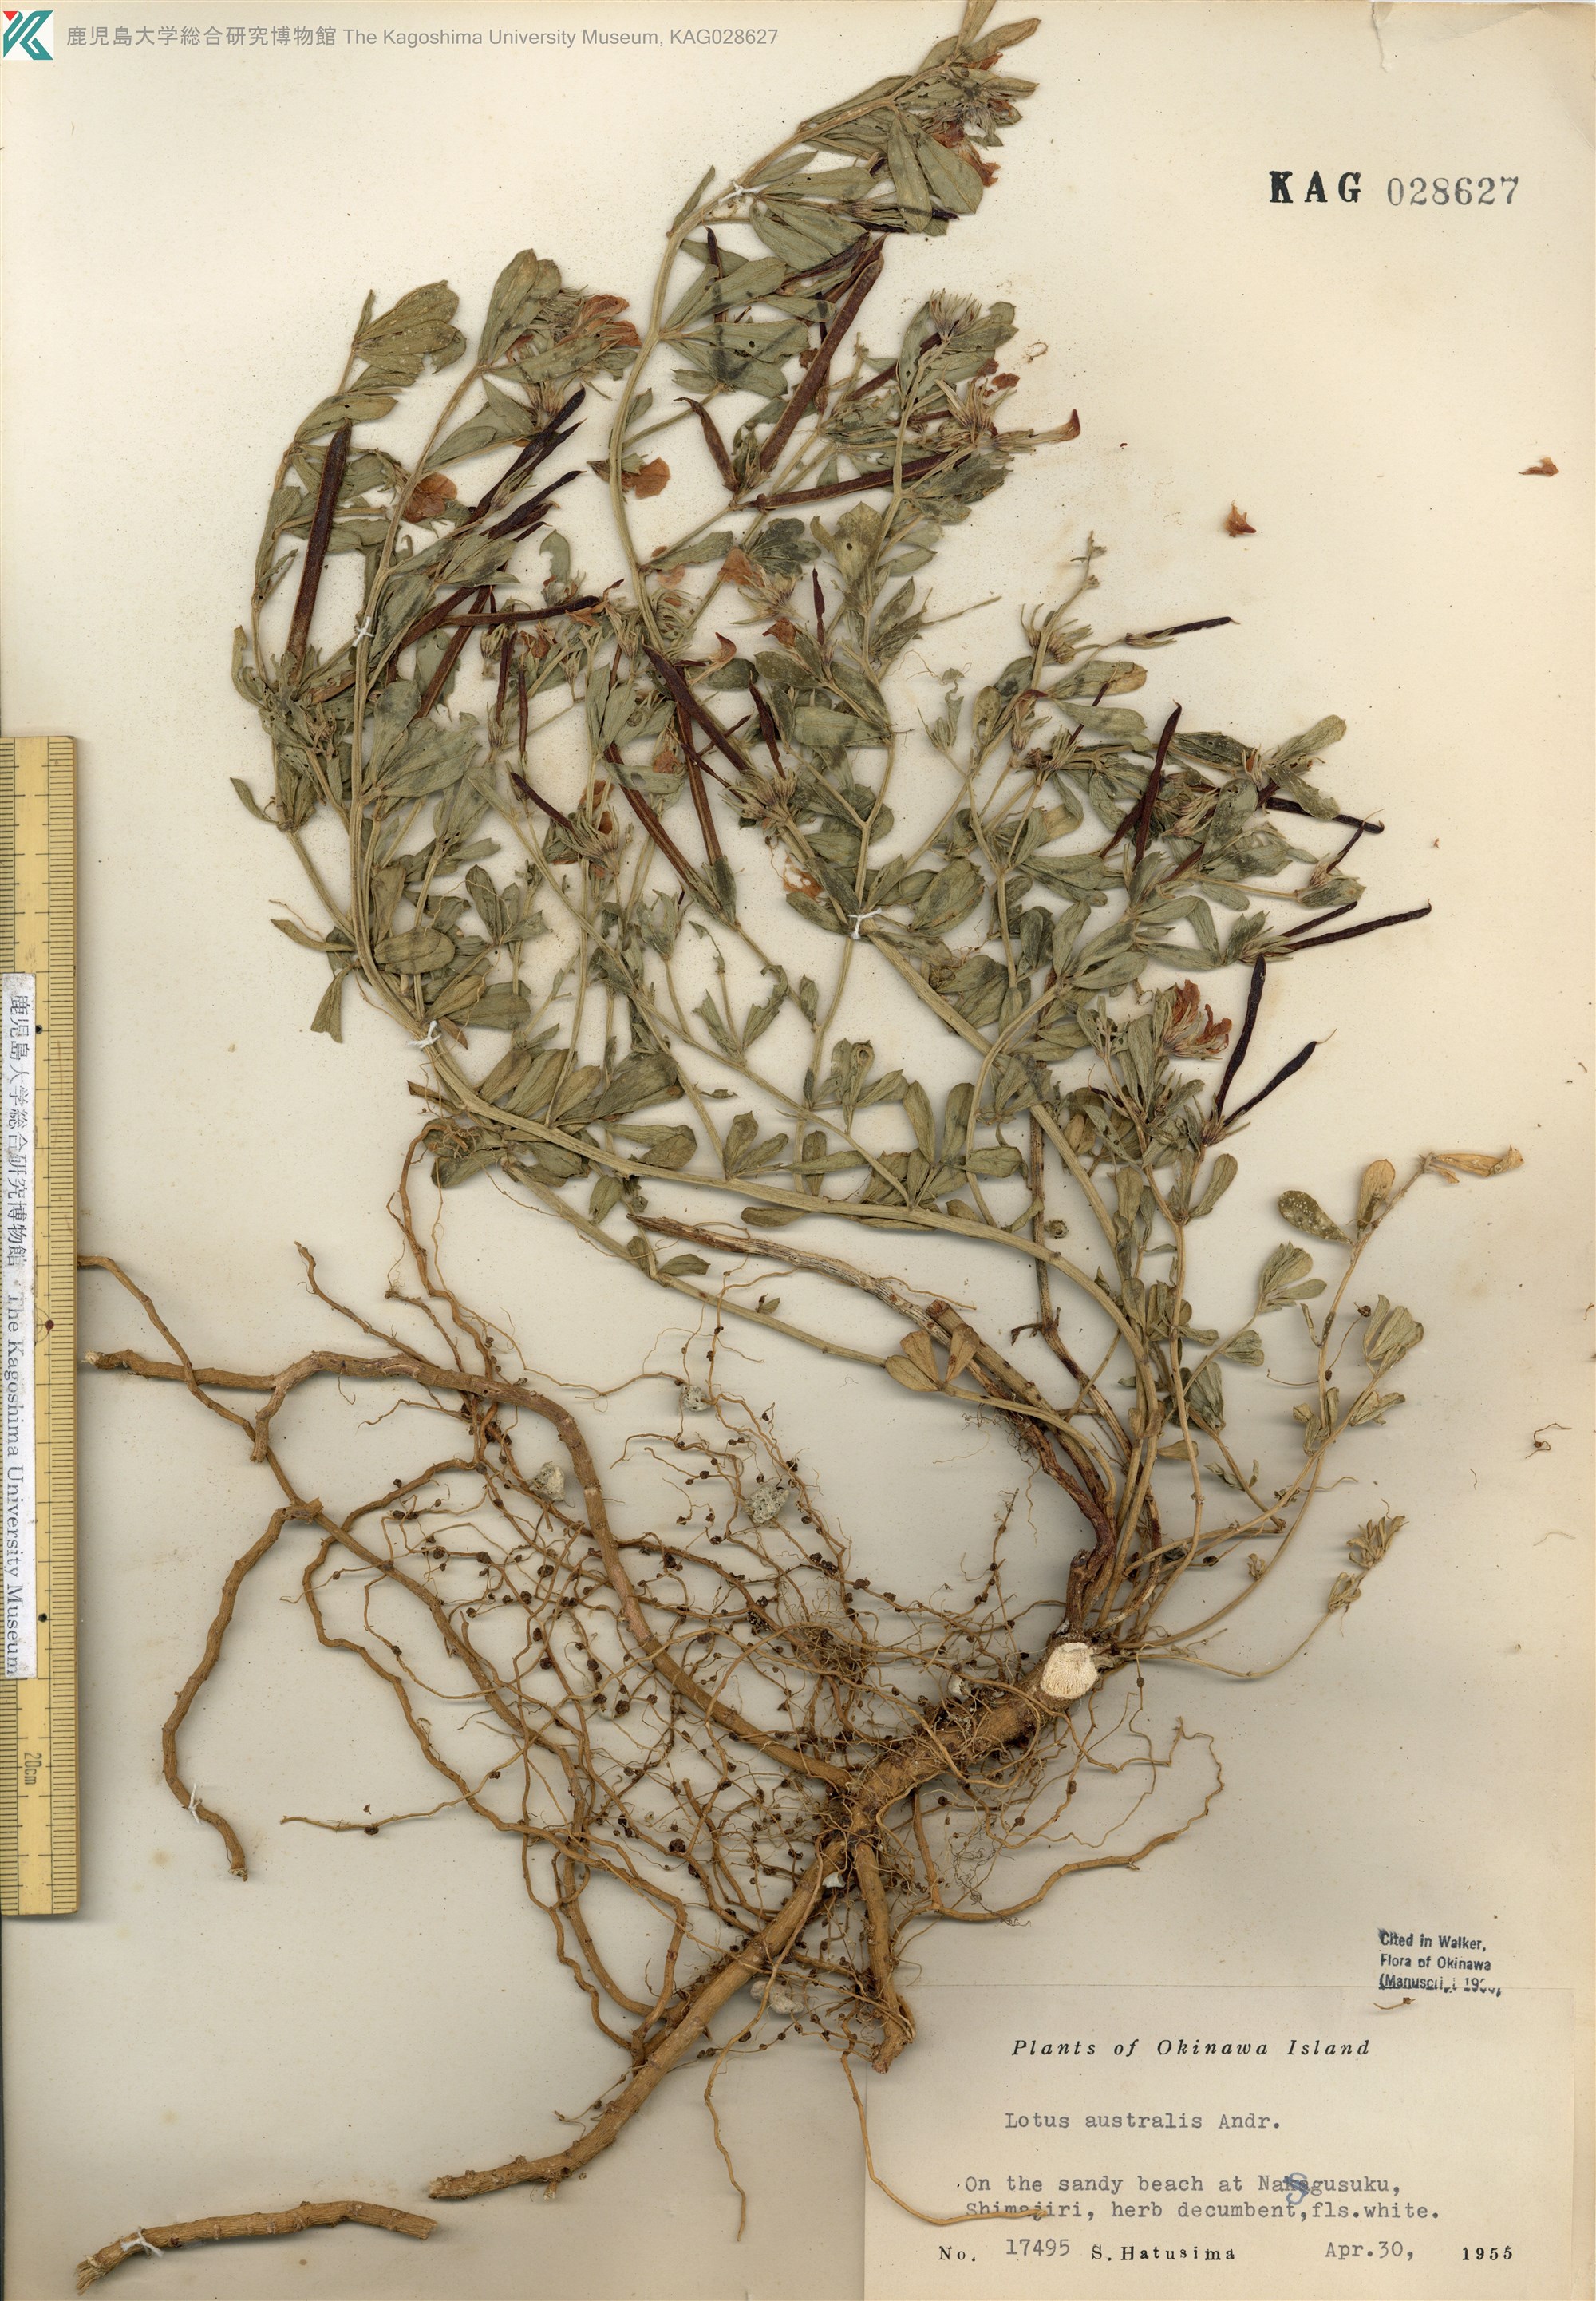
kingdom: Plantae
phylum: Tracheophyta
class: Magnoliopsida
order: Fabales
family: Fabaceae
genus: Lotus
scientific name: Lotus taitungensis
